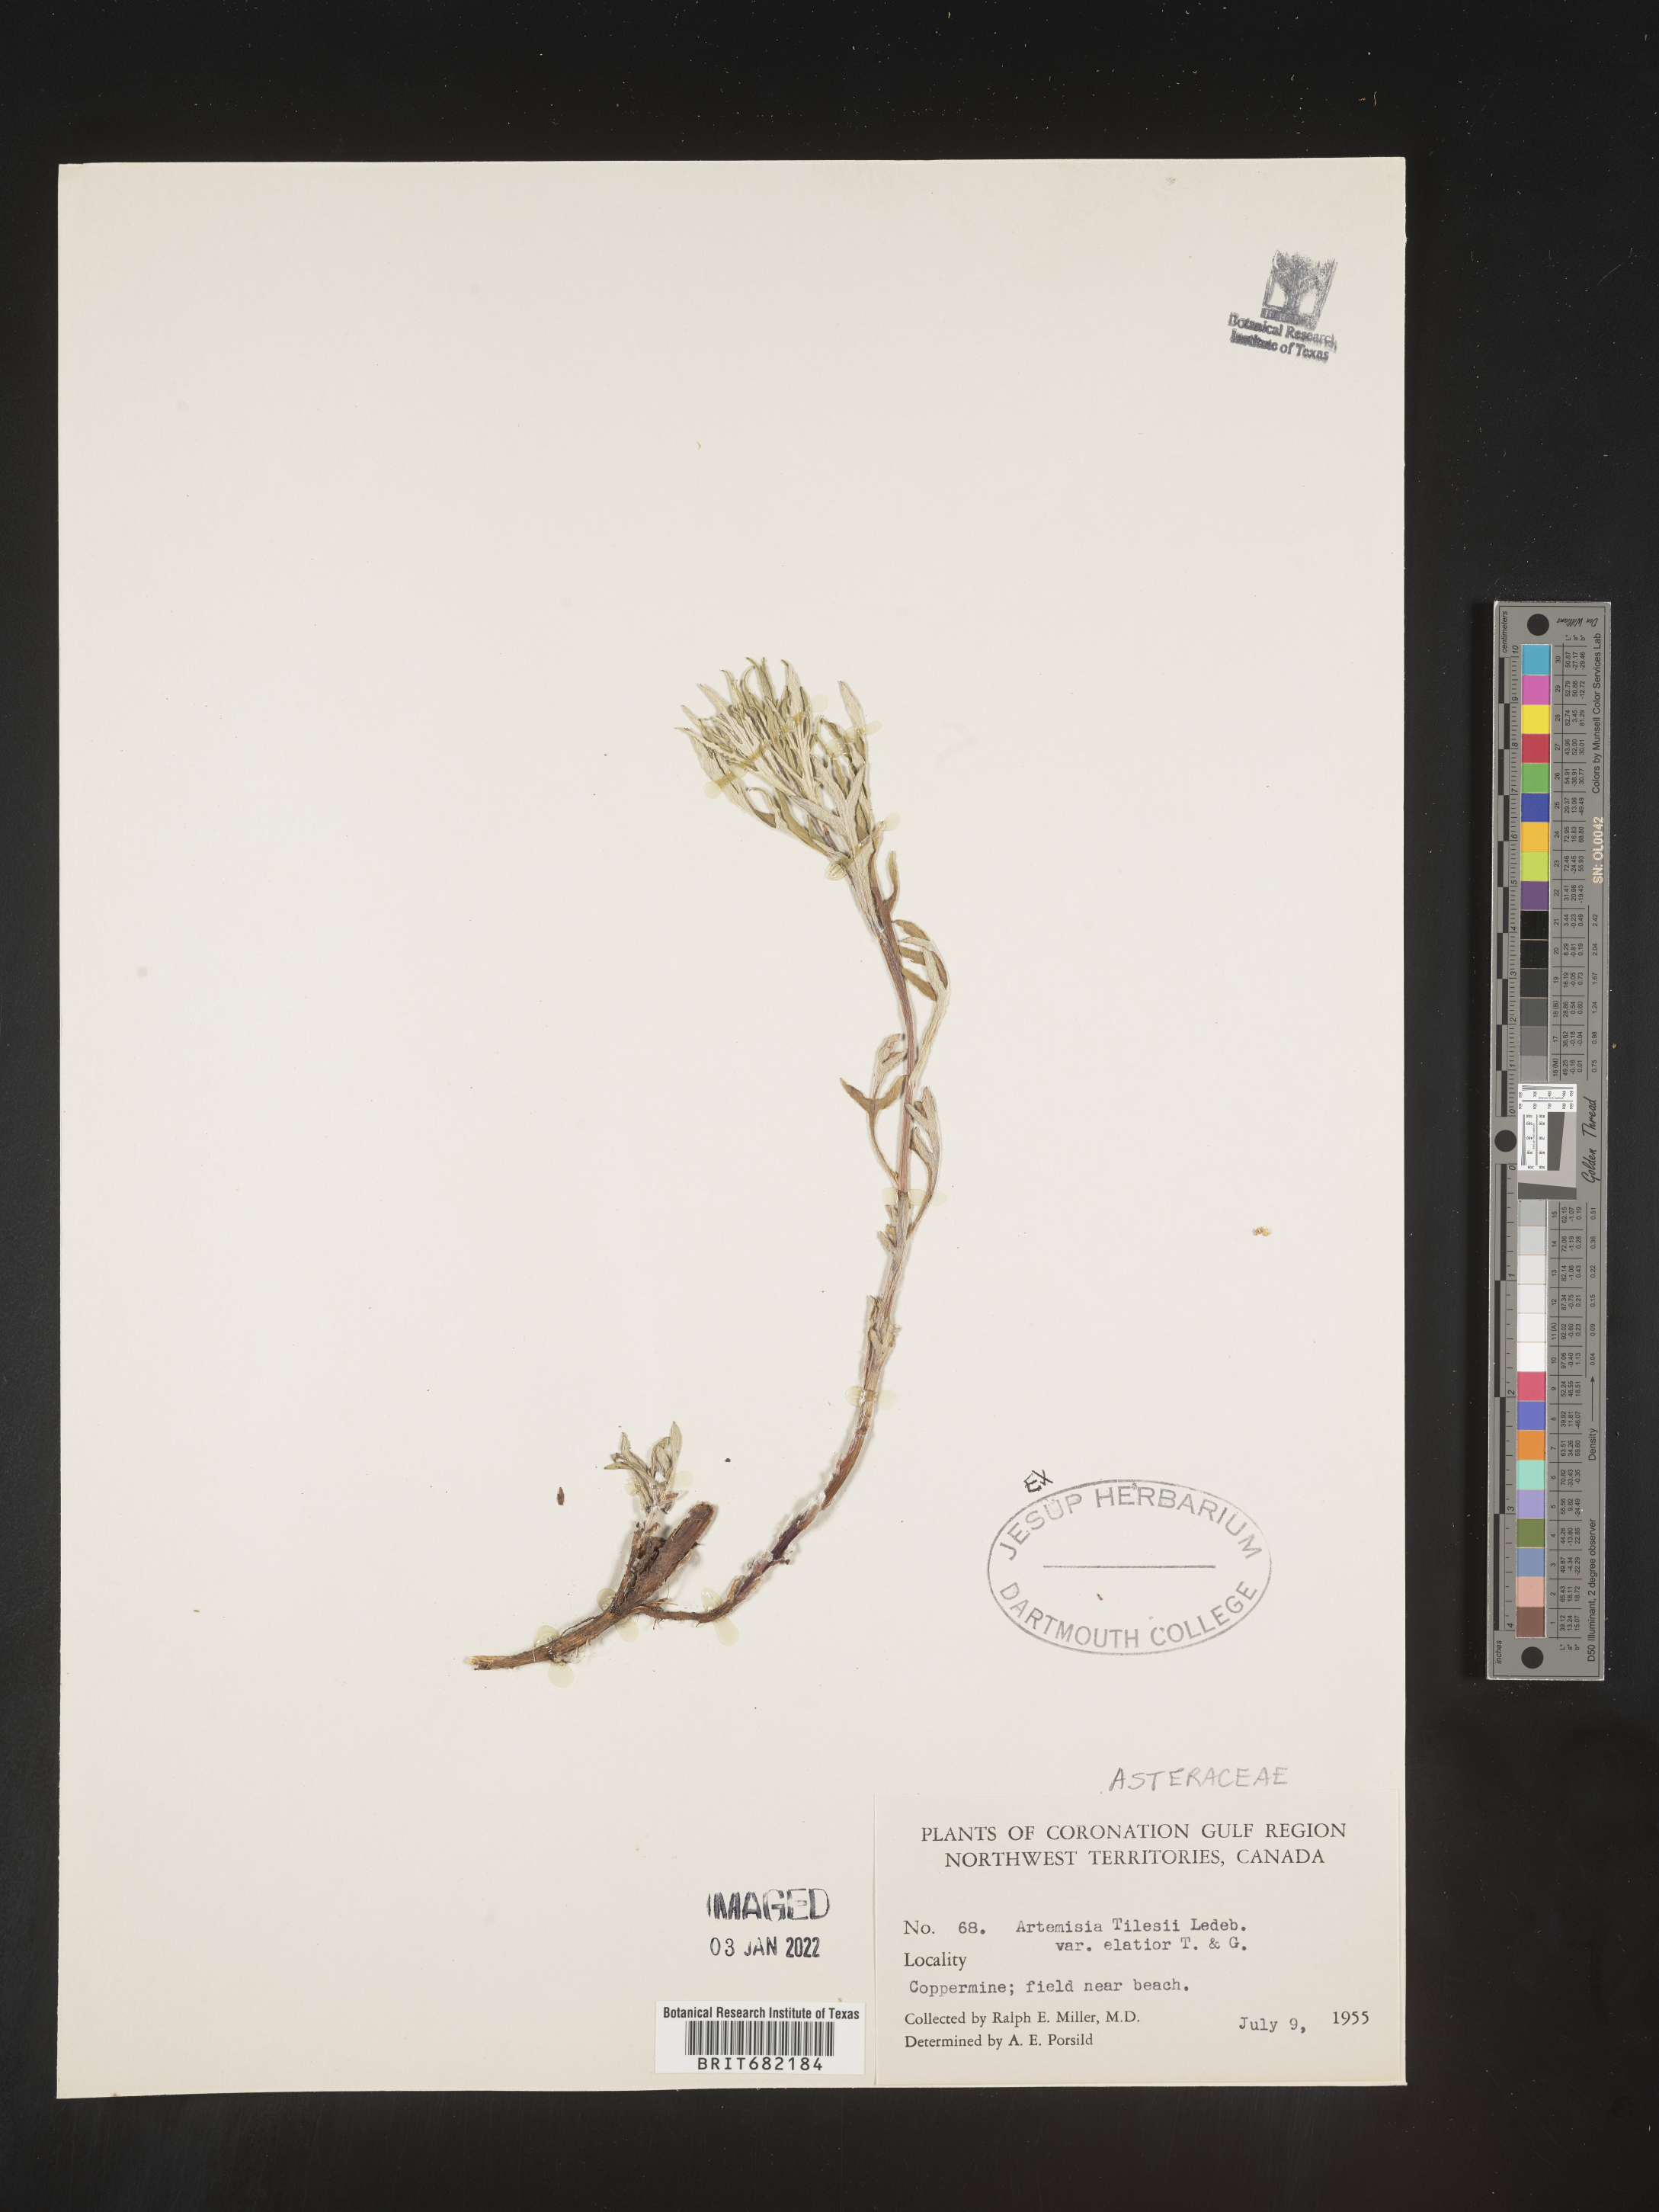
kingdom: Plantae
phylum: Tracheophyta
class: Magnoliopsida
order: Asterales
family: Asteraceae
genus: Artemisia
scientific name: Artemisia tilesii
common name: Aleutian mugwort
